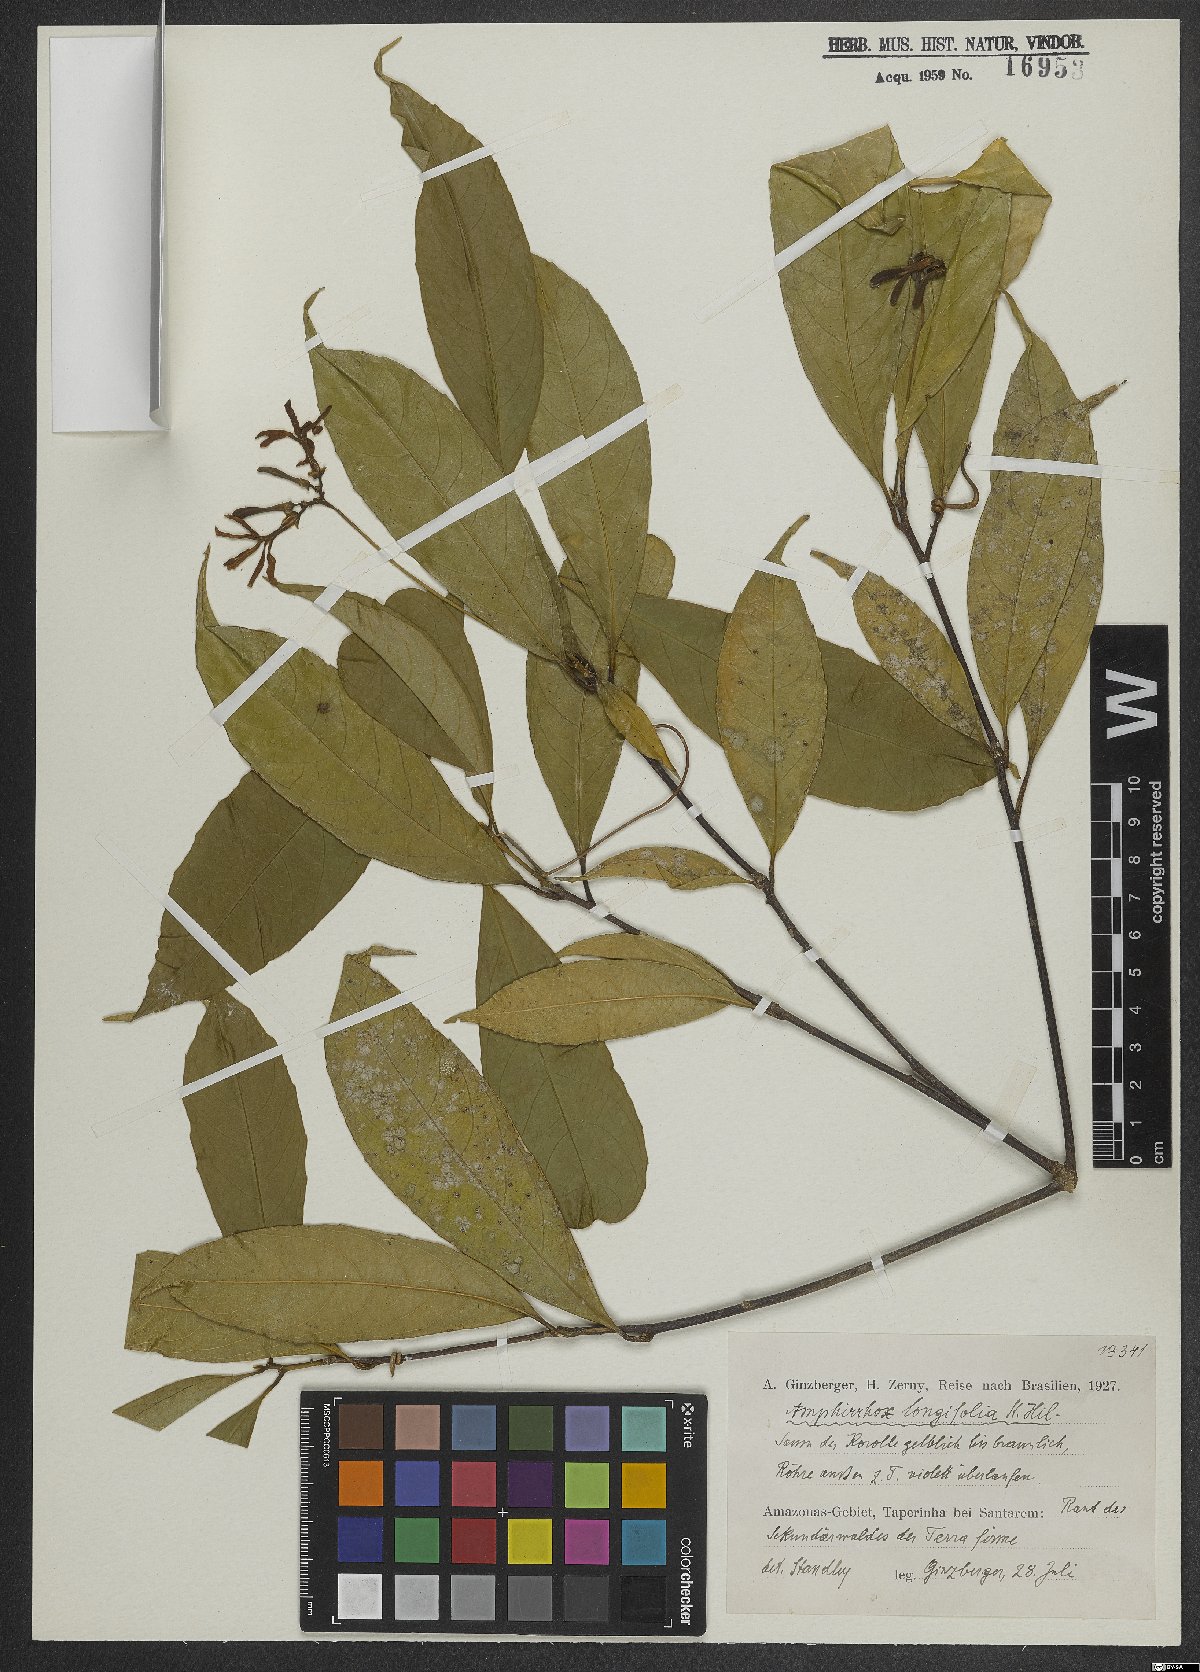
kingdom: Plantae
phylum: Tracheophyta
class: Magnoliopsida
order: Malpighiales
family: Violaceae
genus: Amphirrhox
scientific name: Amphirrhox longifolia
